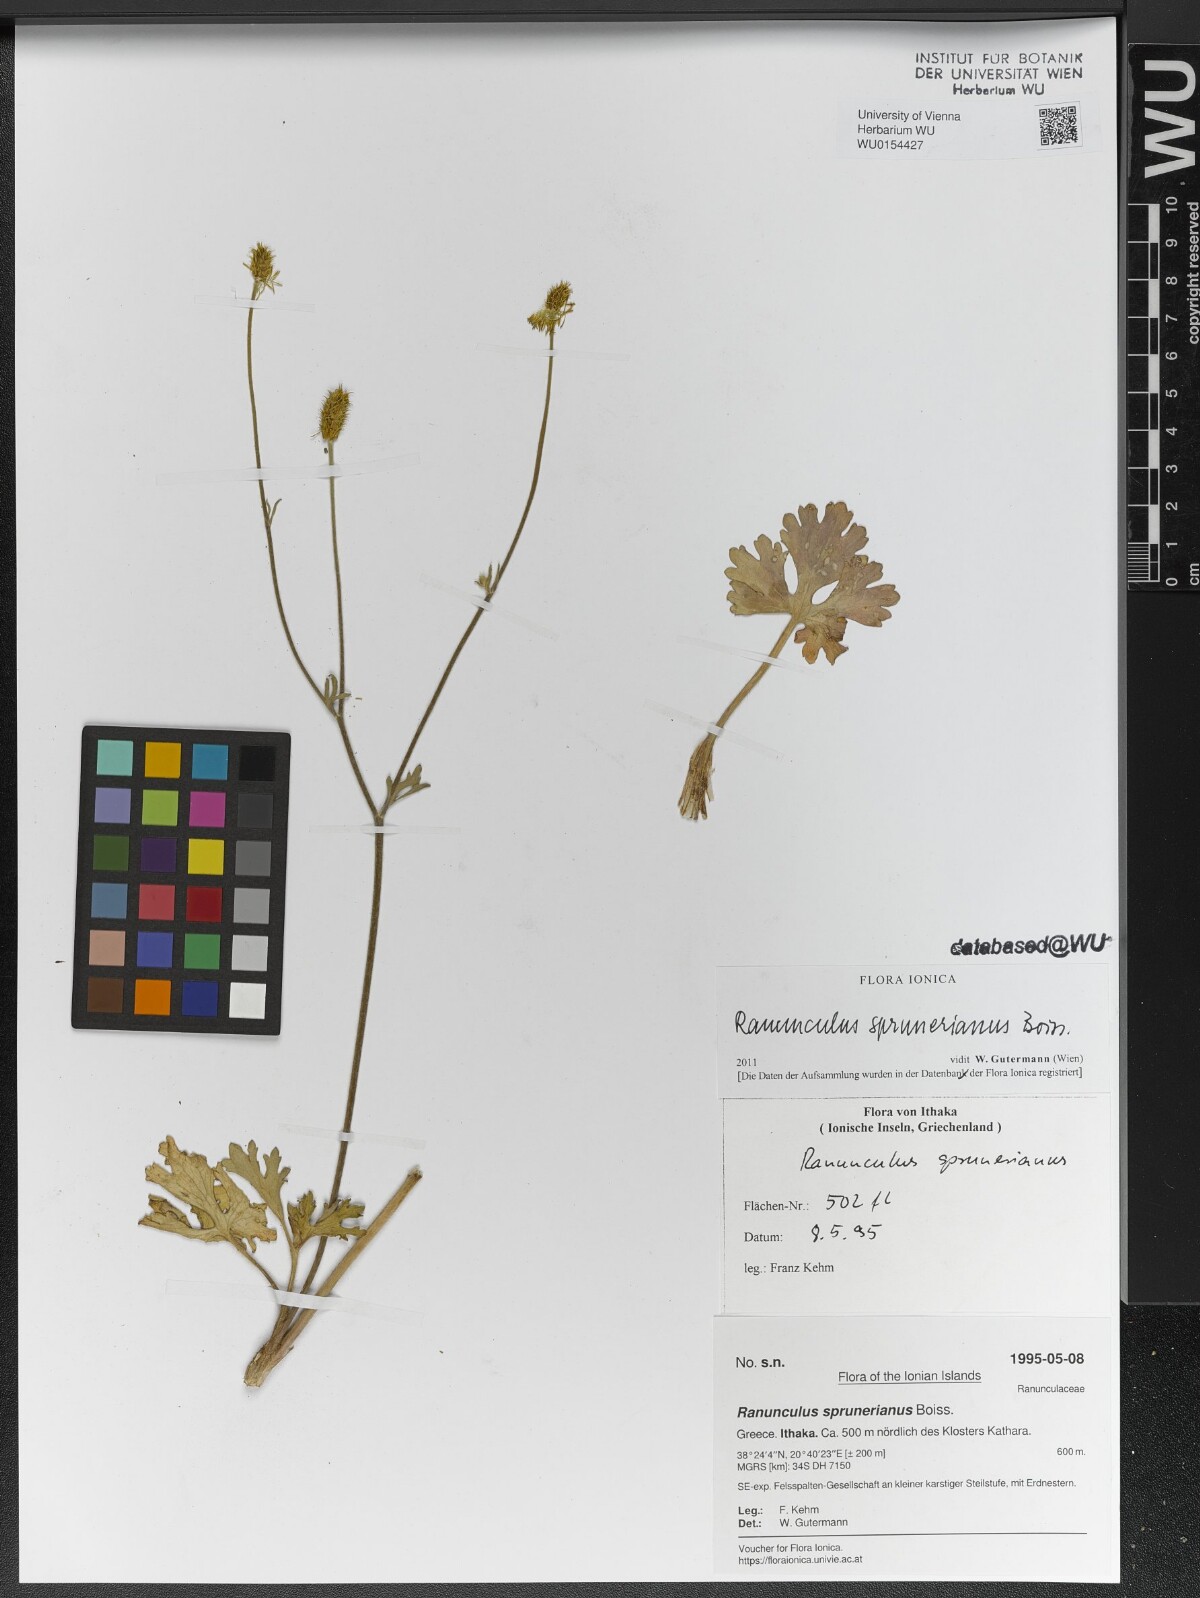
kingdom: Plantae
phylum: Tracheophyta
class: Magnoliopsida
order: Ranunculales
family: Ranunculaceae
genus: Ranunculus
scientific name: Ranunculus sprunerianus
